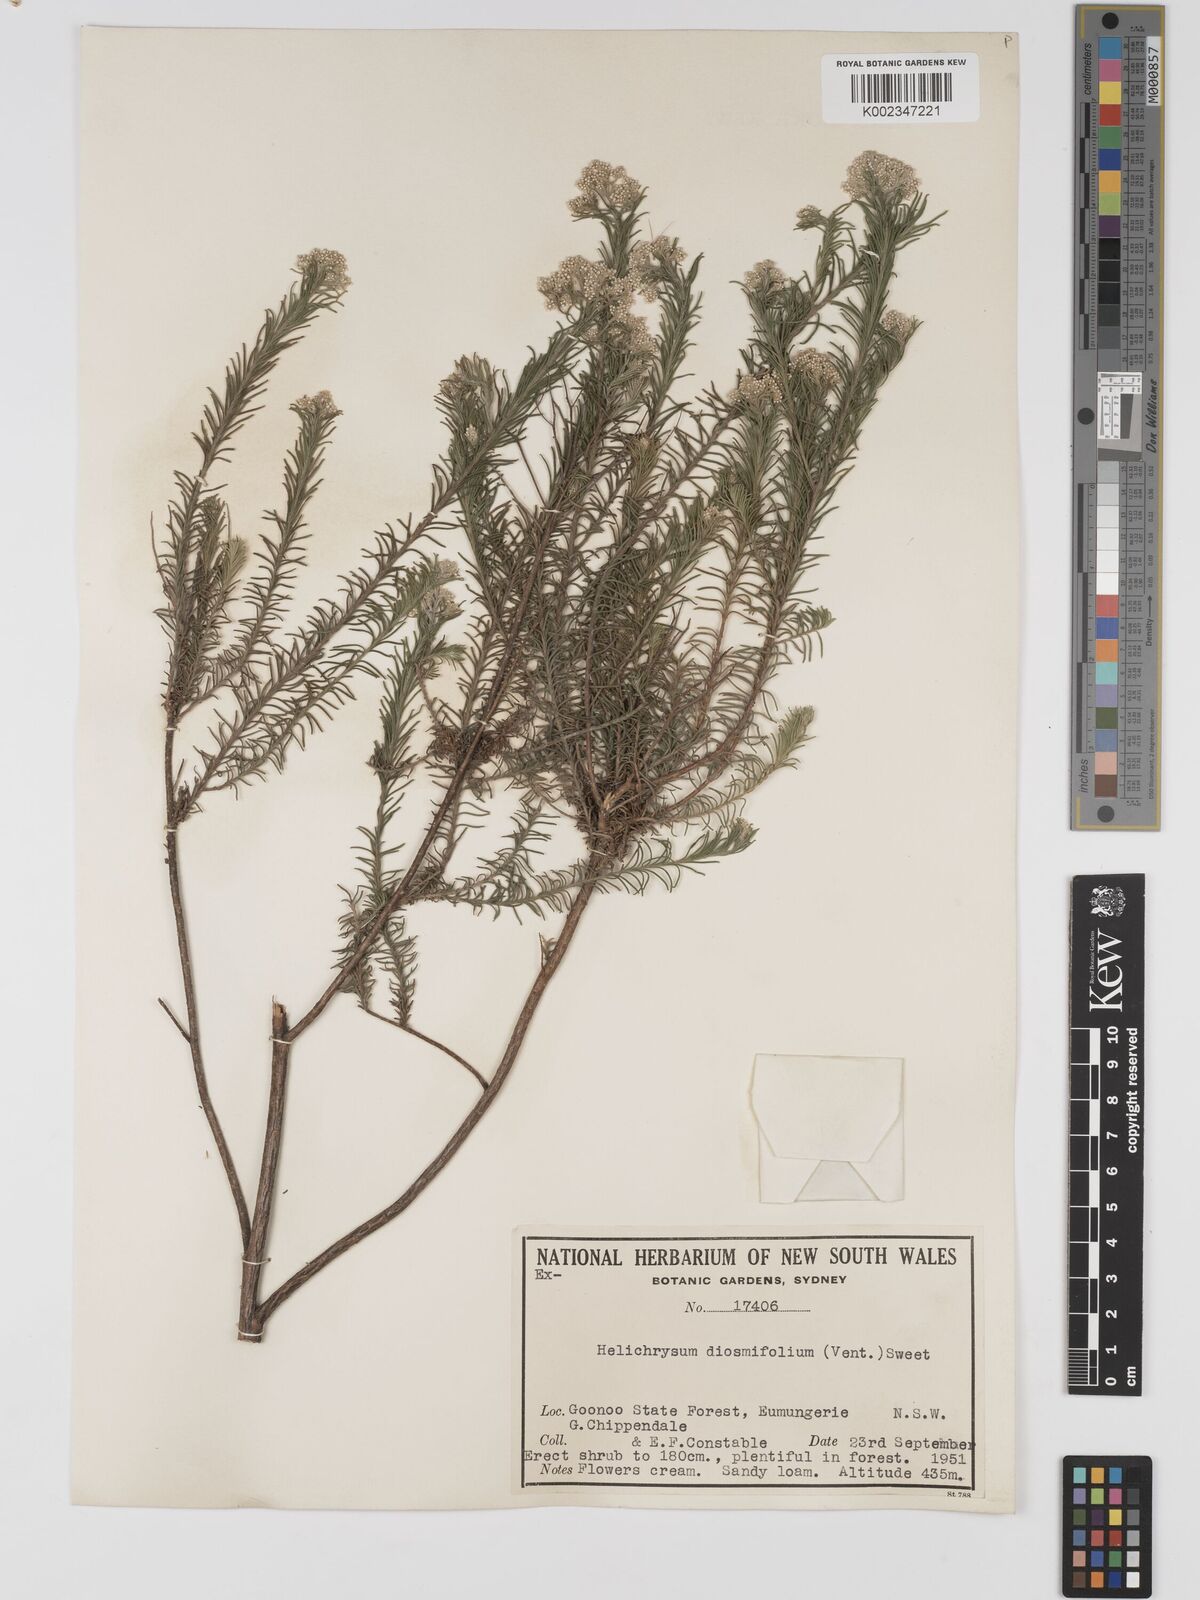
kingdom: Plantae
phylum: Tracheophyta
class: Magnoliopsida
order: Asterales
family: Asteraceae
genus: Ozothamnus
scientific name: Ozothamnus diosmifolius
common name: White-dogwood
